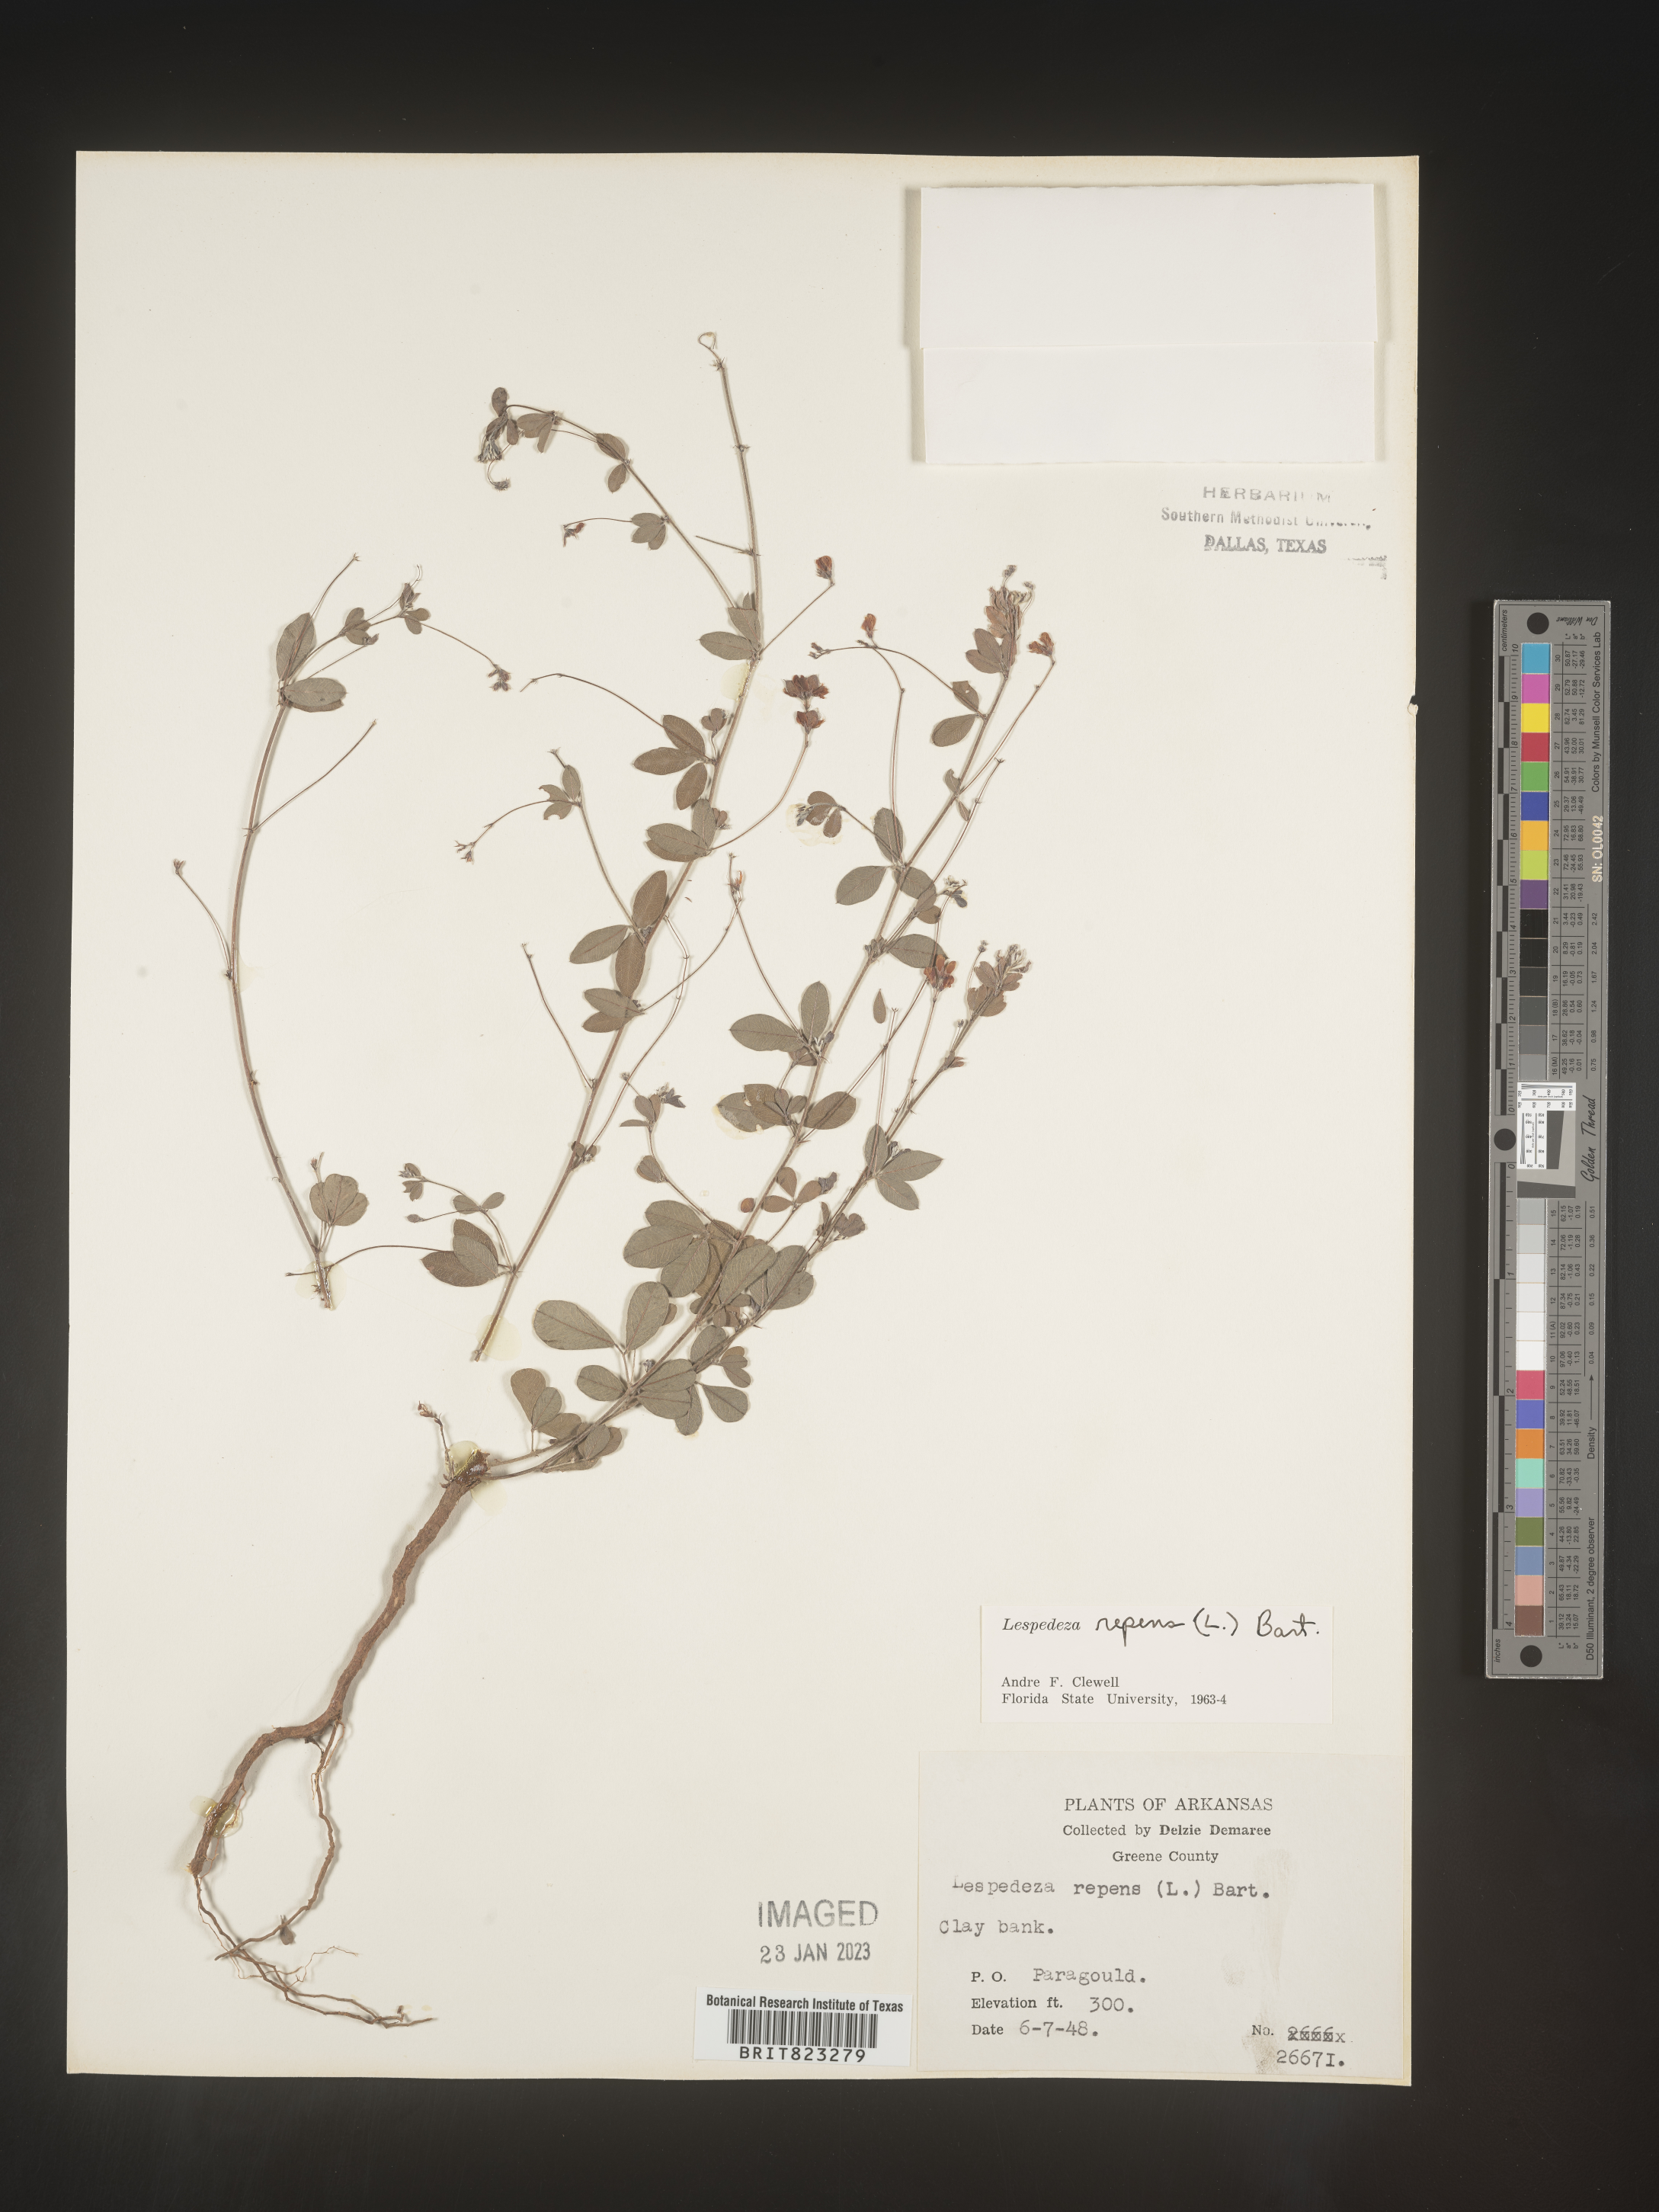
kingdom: Plantae
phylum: Tracheophyta
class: Magnoliopsida
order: Fabales
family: Fabaceae
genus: Lespedeza
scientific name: Lespedeza repens
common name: Creeping bush-clover
